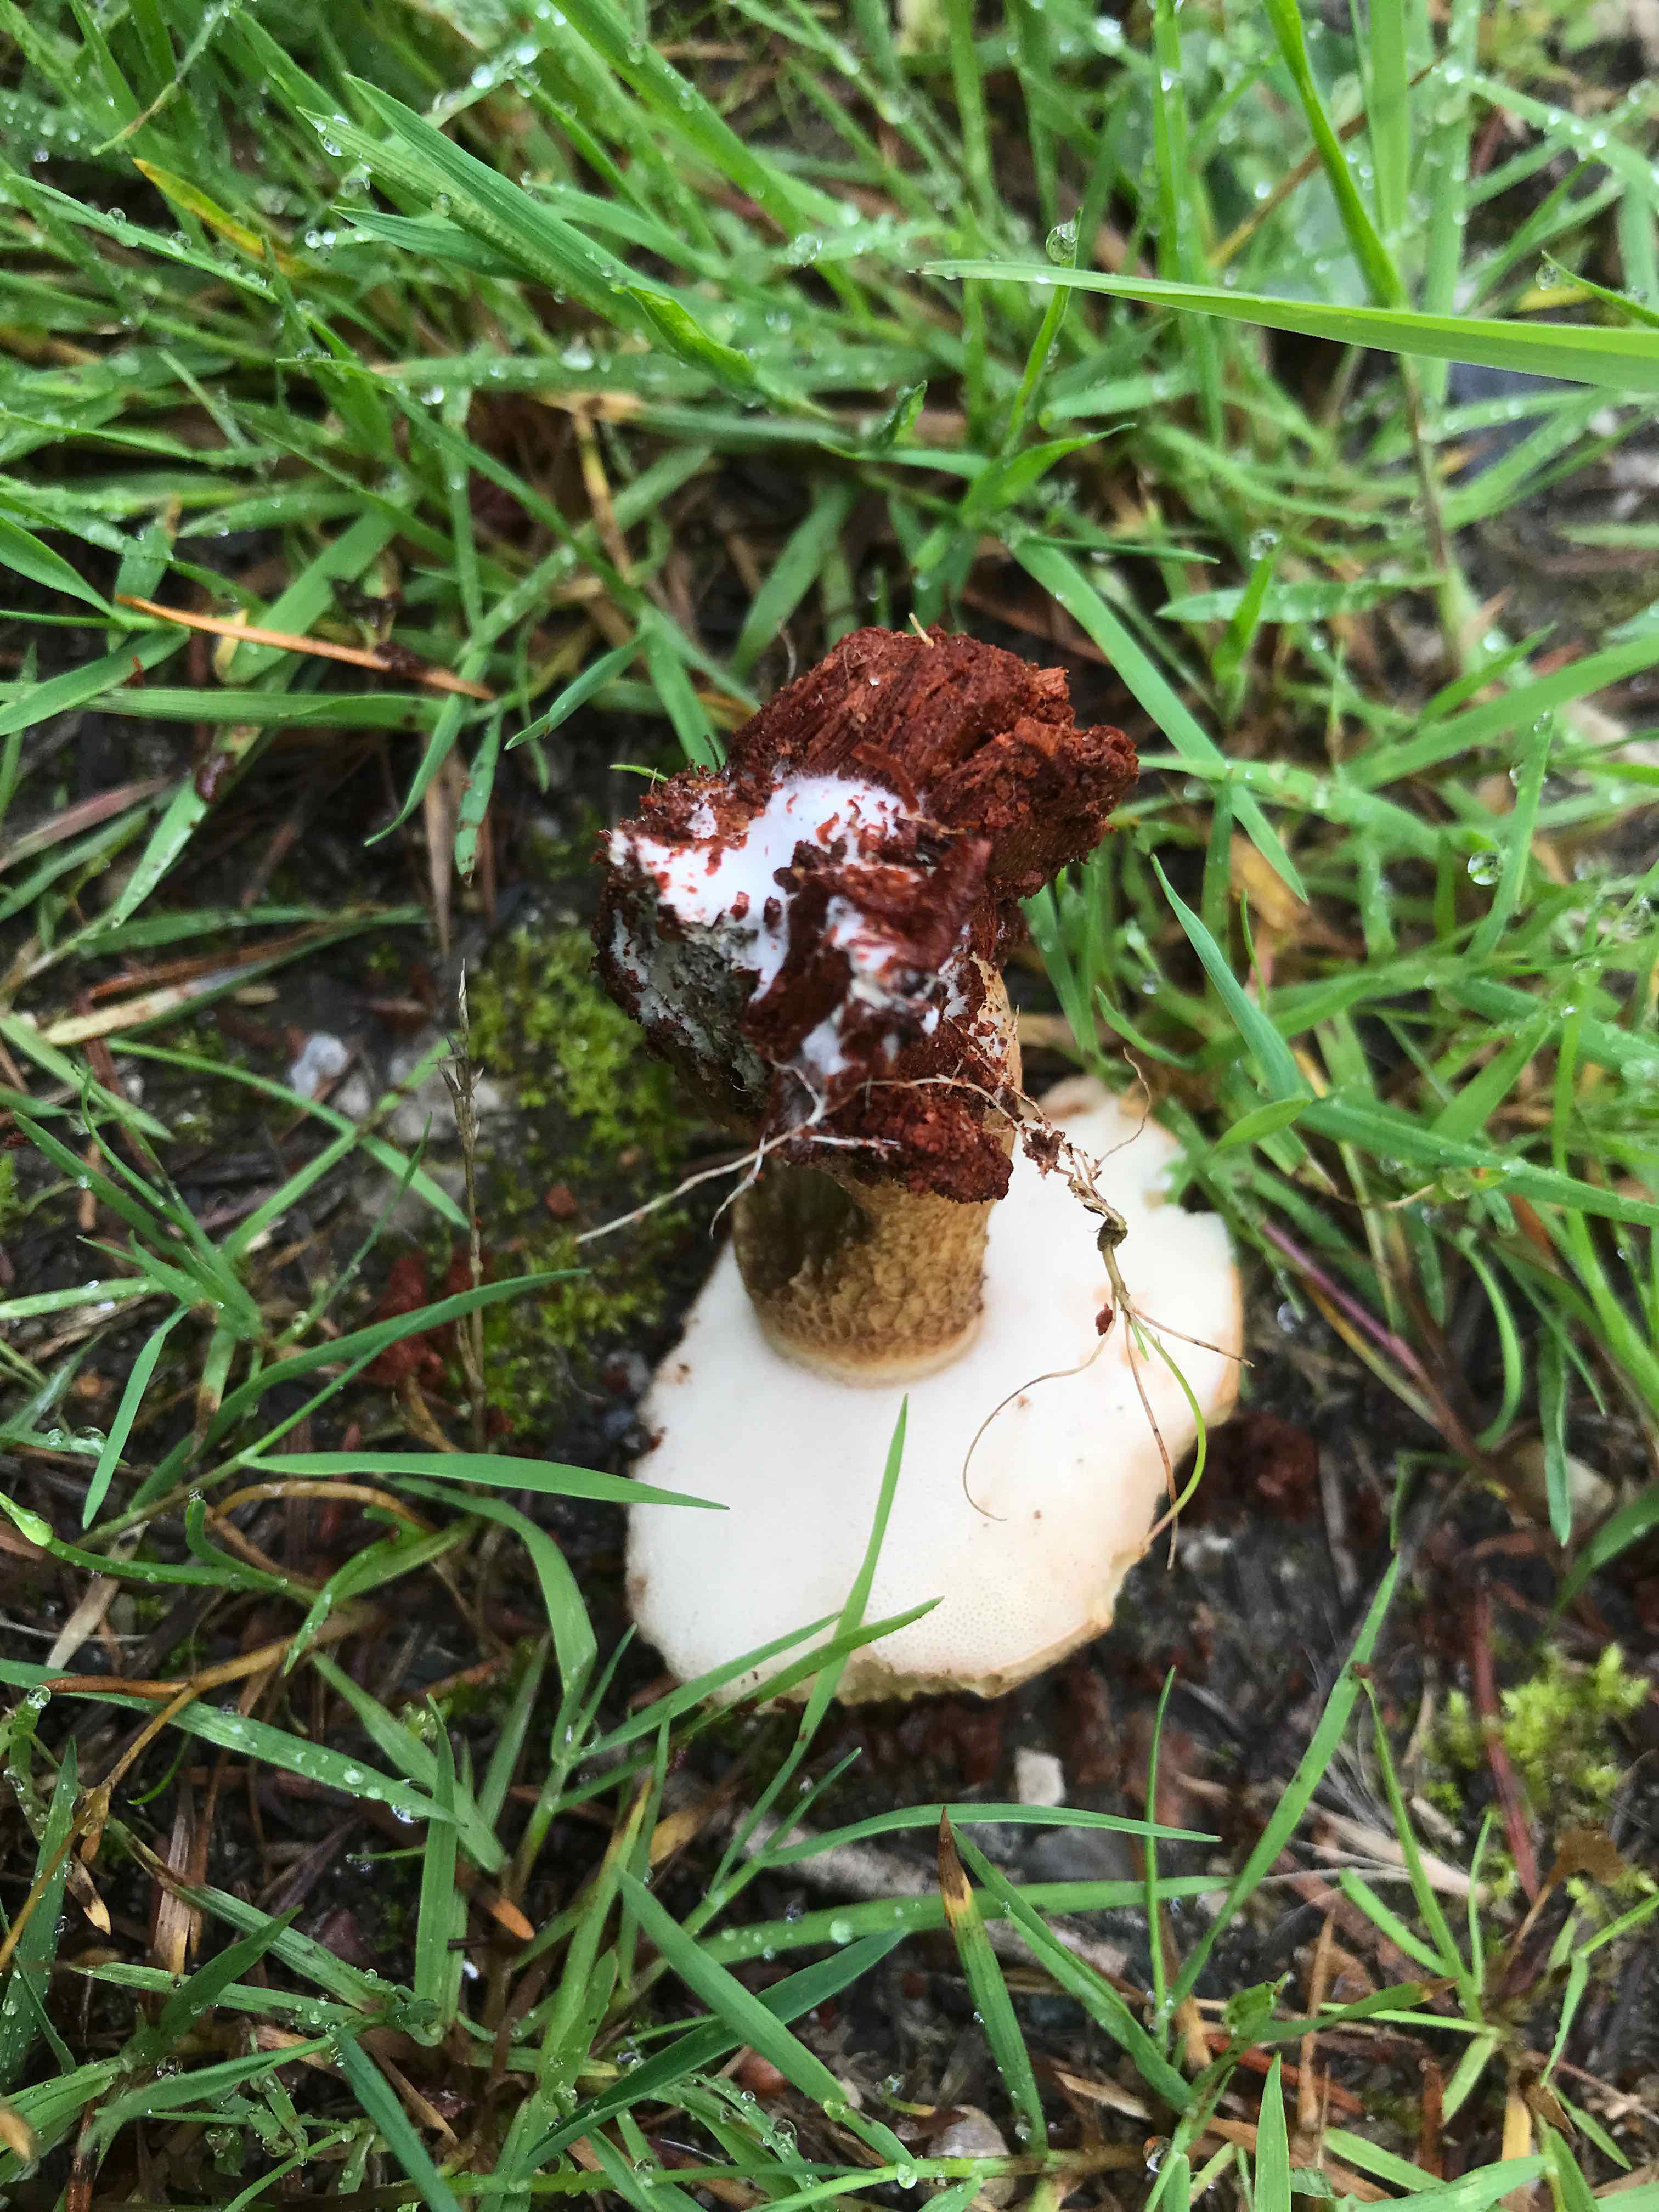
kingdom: Fungi
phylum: Basidiomycota
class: Agaricomycetes
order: Boletales
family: Boletaceae
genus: Tylopilus
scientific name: Tylopilus felleus
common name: galderørhat
